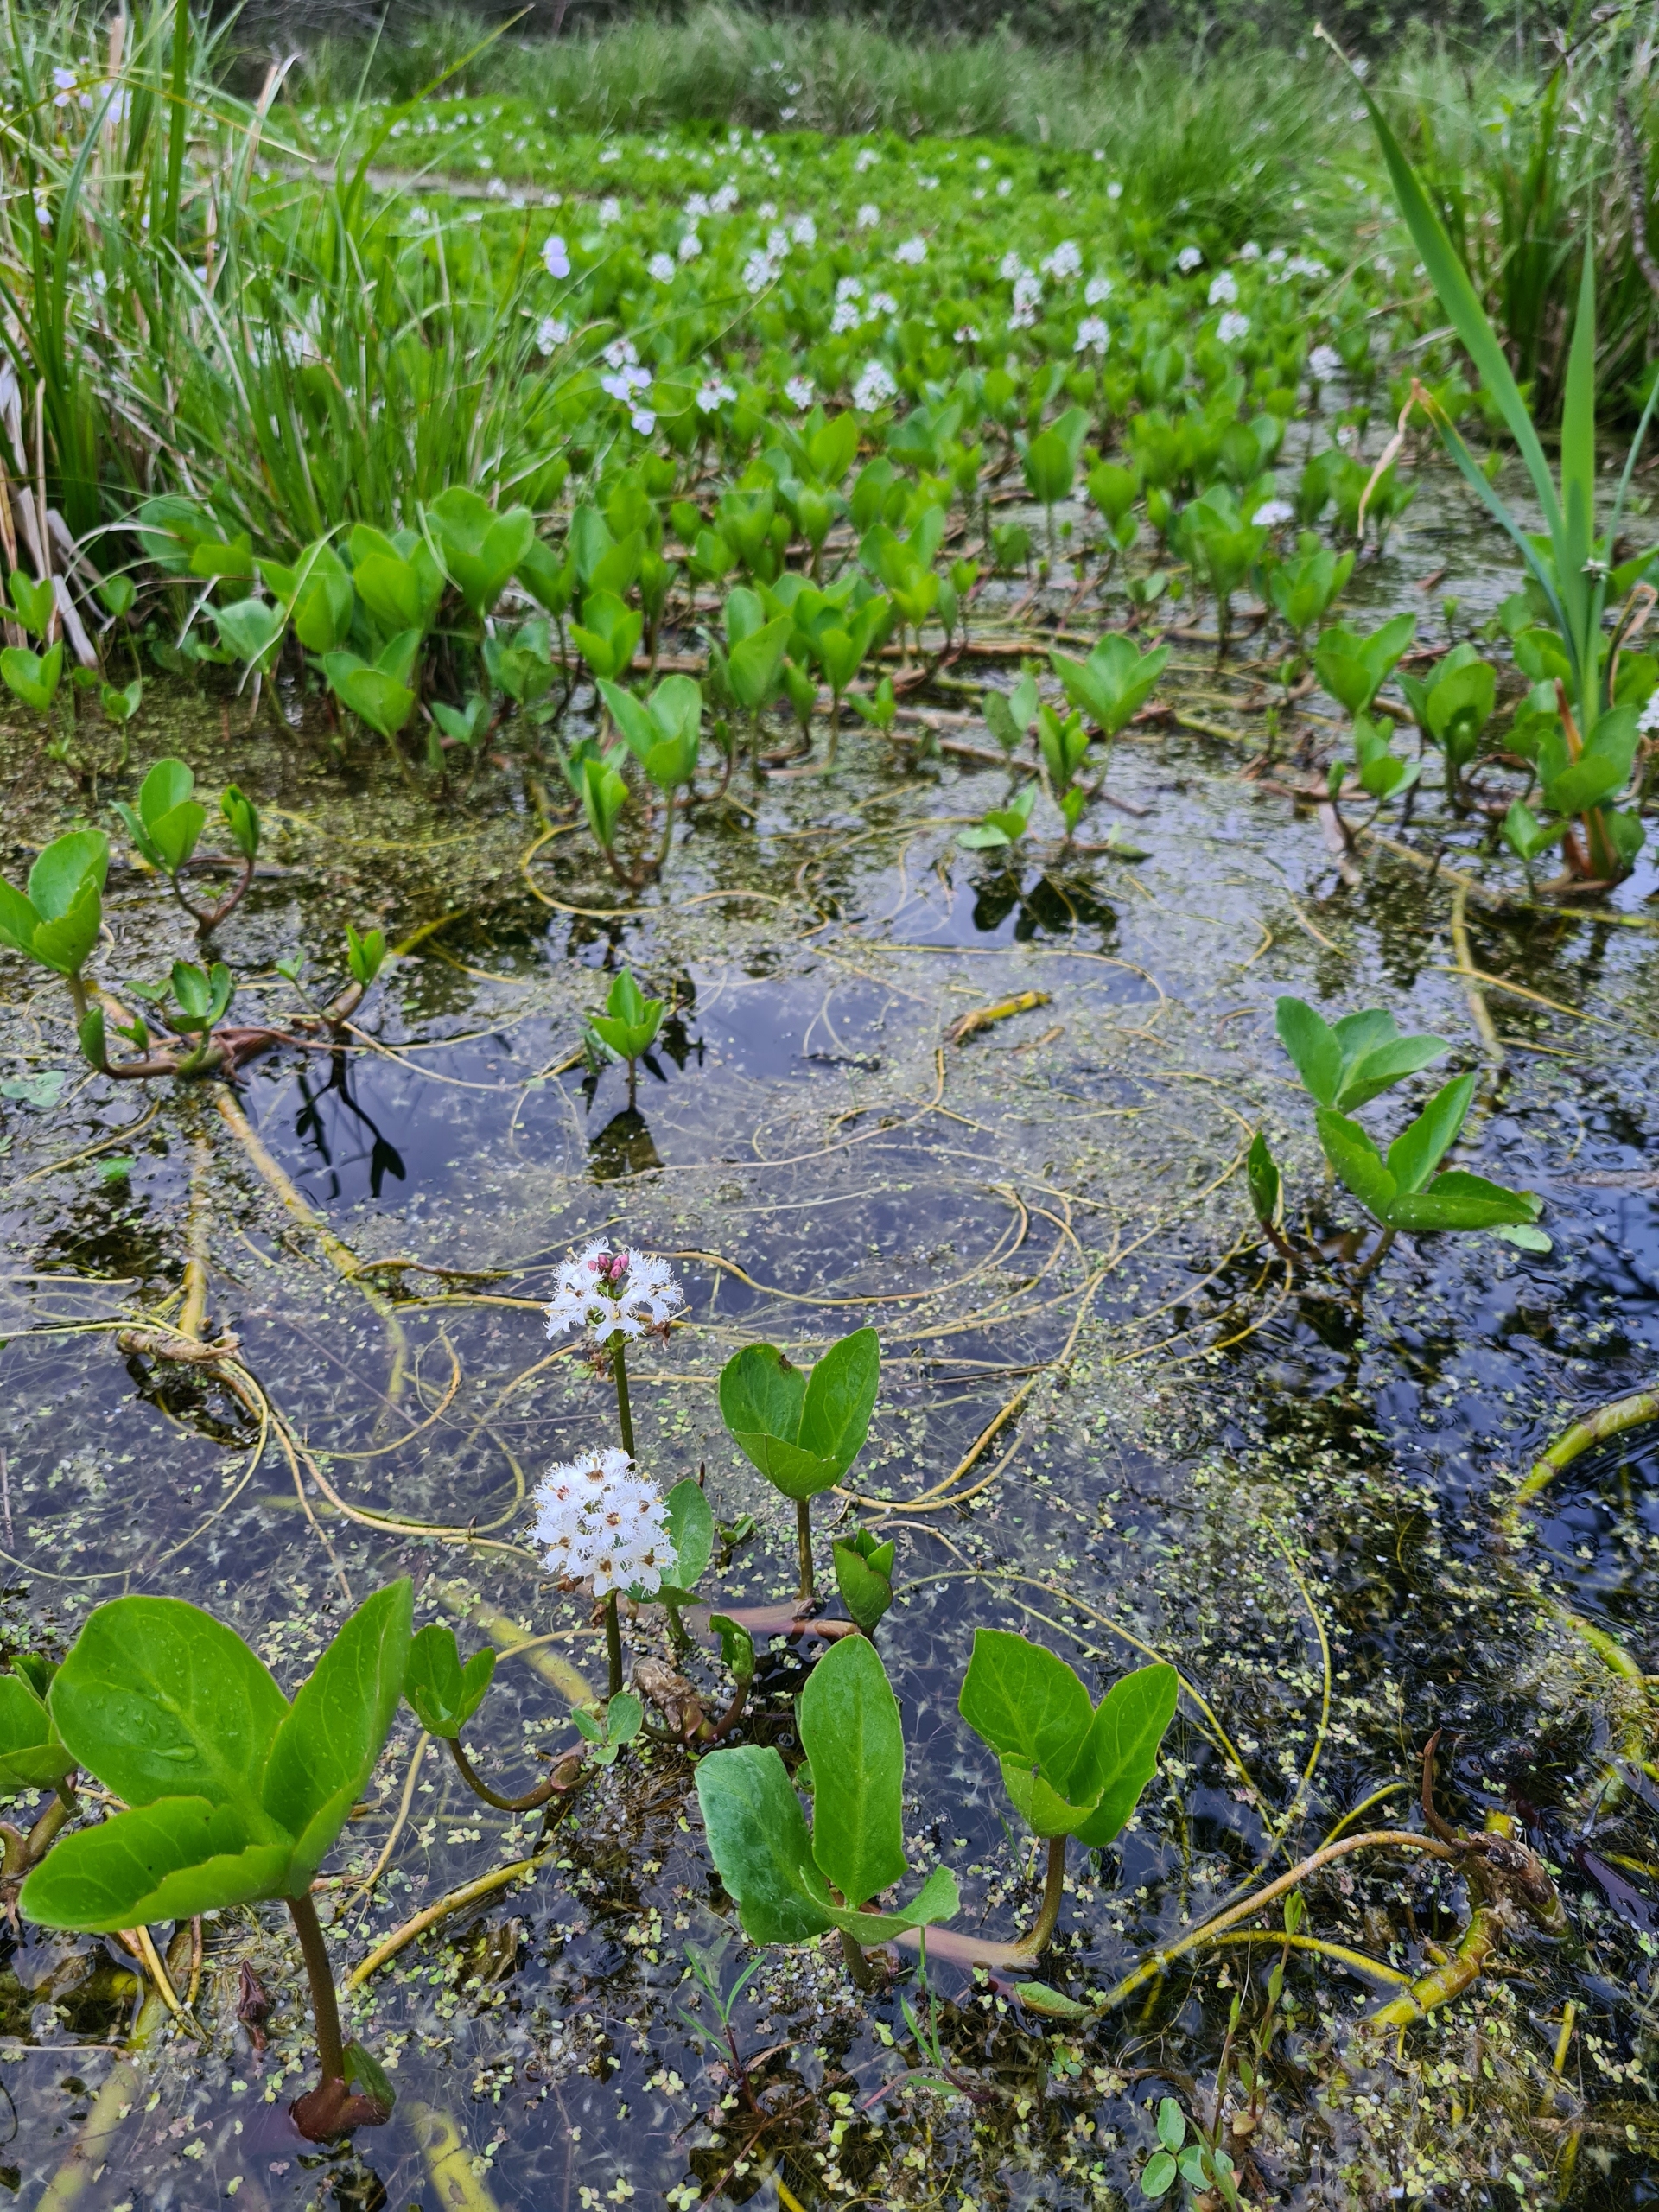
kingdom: Plantae
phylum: Tracheophyta
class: Magnoliopsida
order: Asterales
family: Menyanthaceae
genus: Menyanthes
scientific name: Menyanthes trifoliata
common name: Bukkeblad
